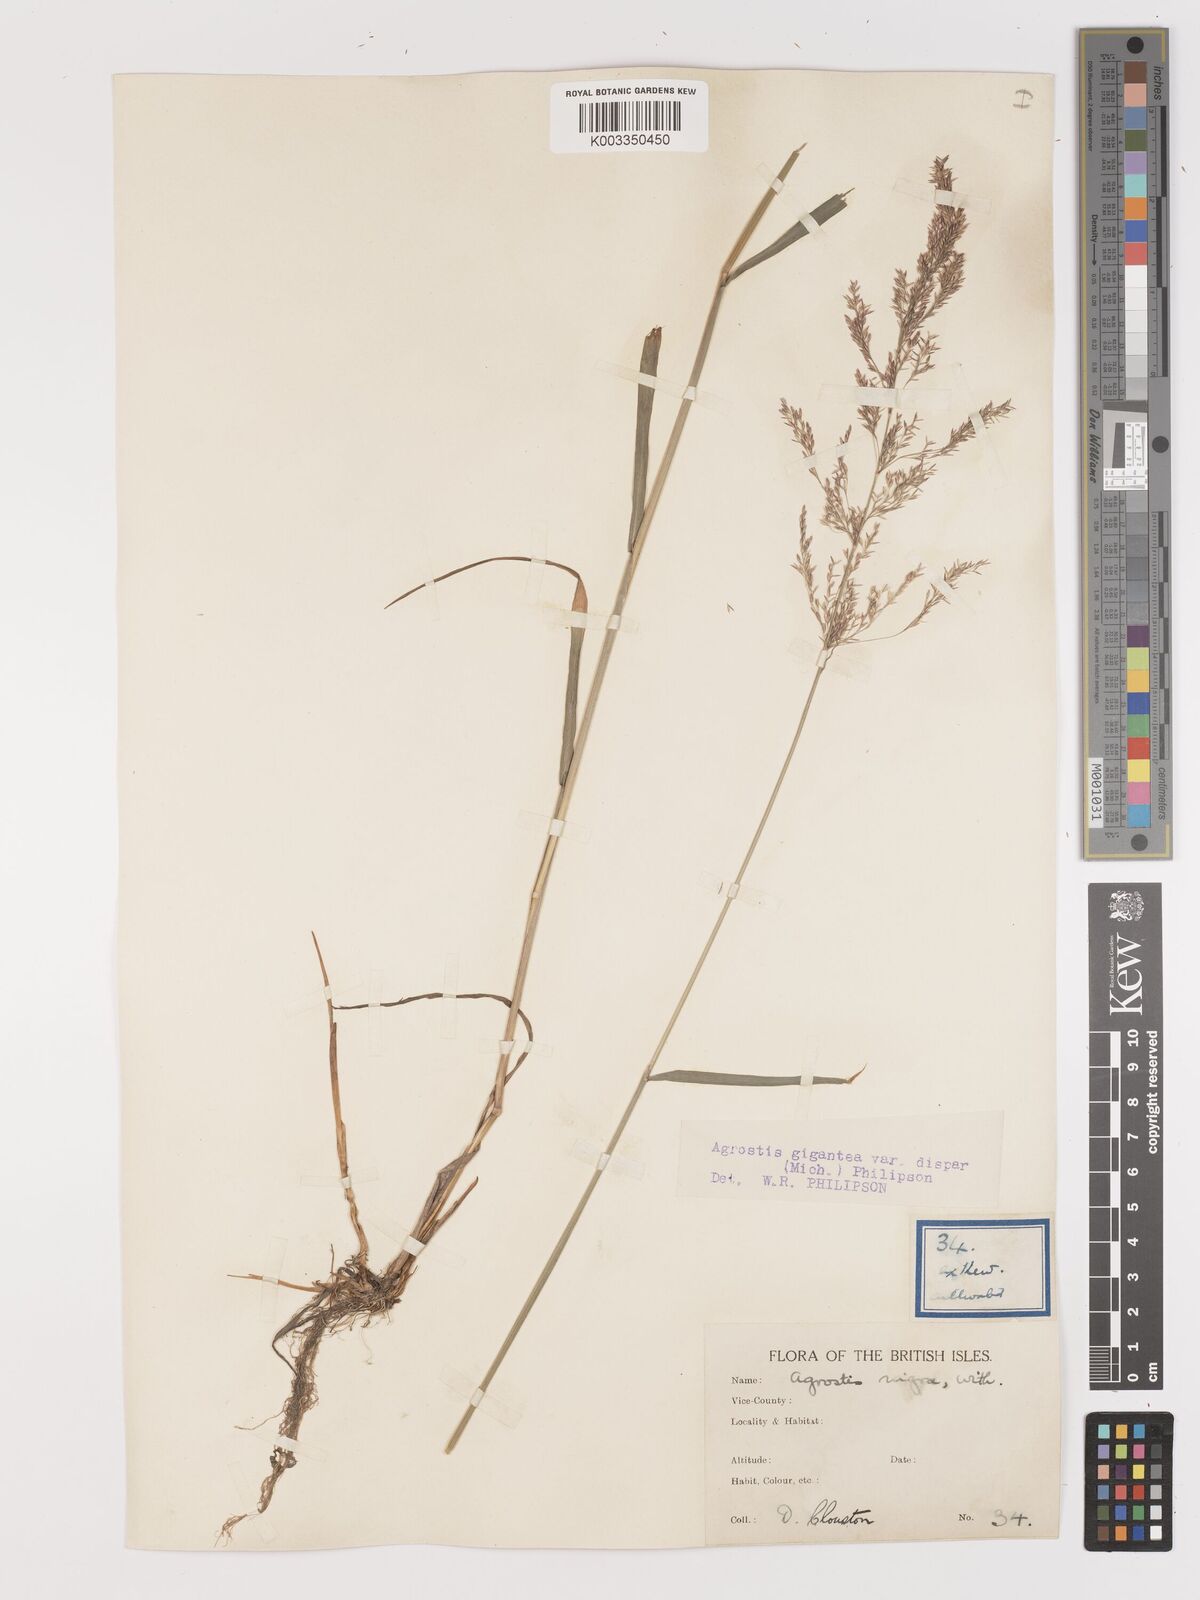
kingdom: Plantae
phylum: Tracheophyta
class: Liliopsida
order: Poales
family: Poaceae
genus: Agrostis
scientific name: Agrostis gigantea
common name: Black bent
